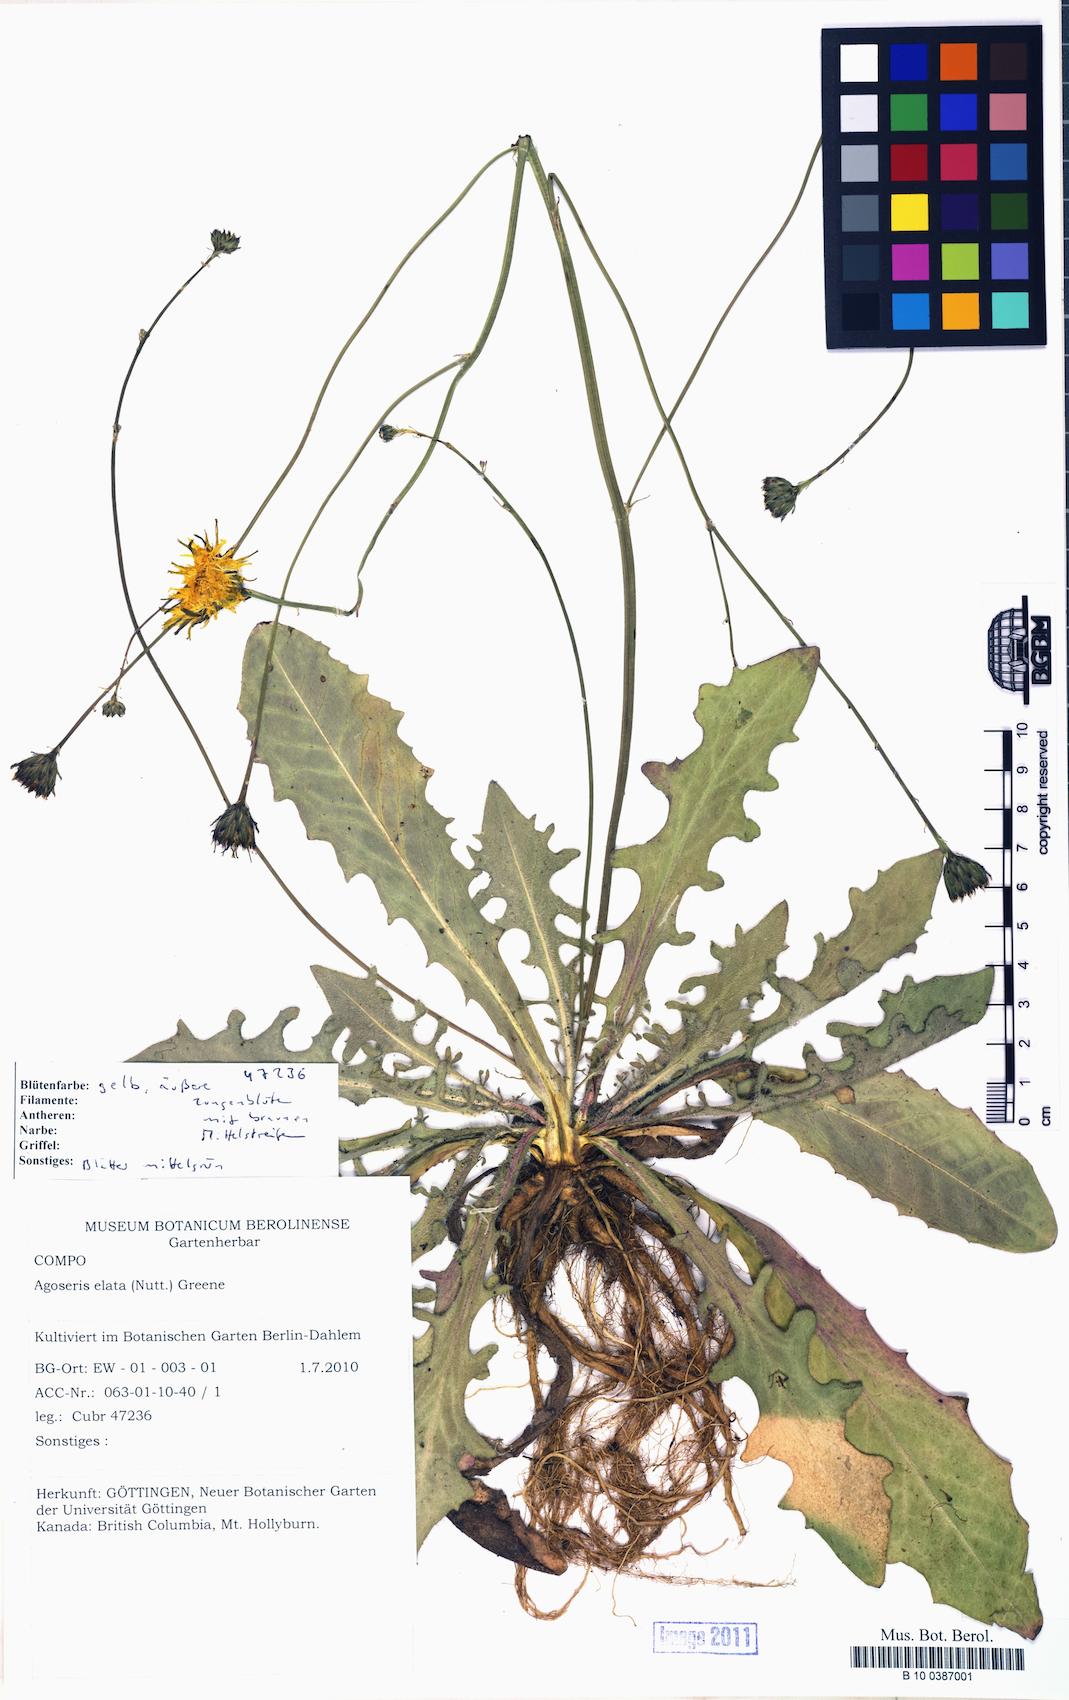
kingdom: Plantae
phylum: Tracheophyta
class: Magnoliopsida
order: Asterales
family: Asteraceae
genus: Agoseris
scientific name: Agoseris elata
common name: Willamette agoseris
